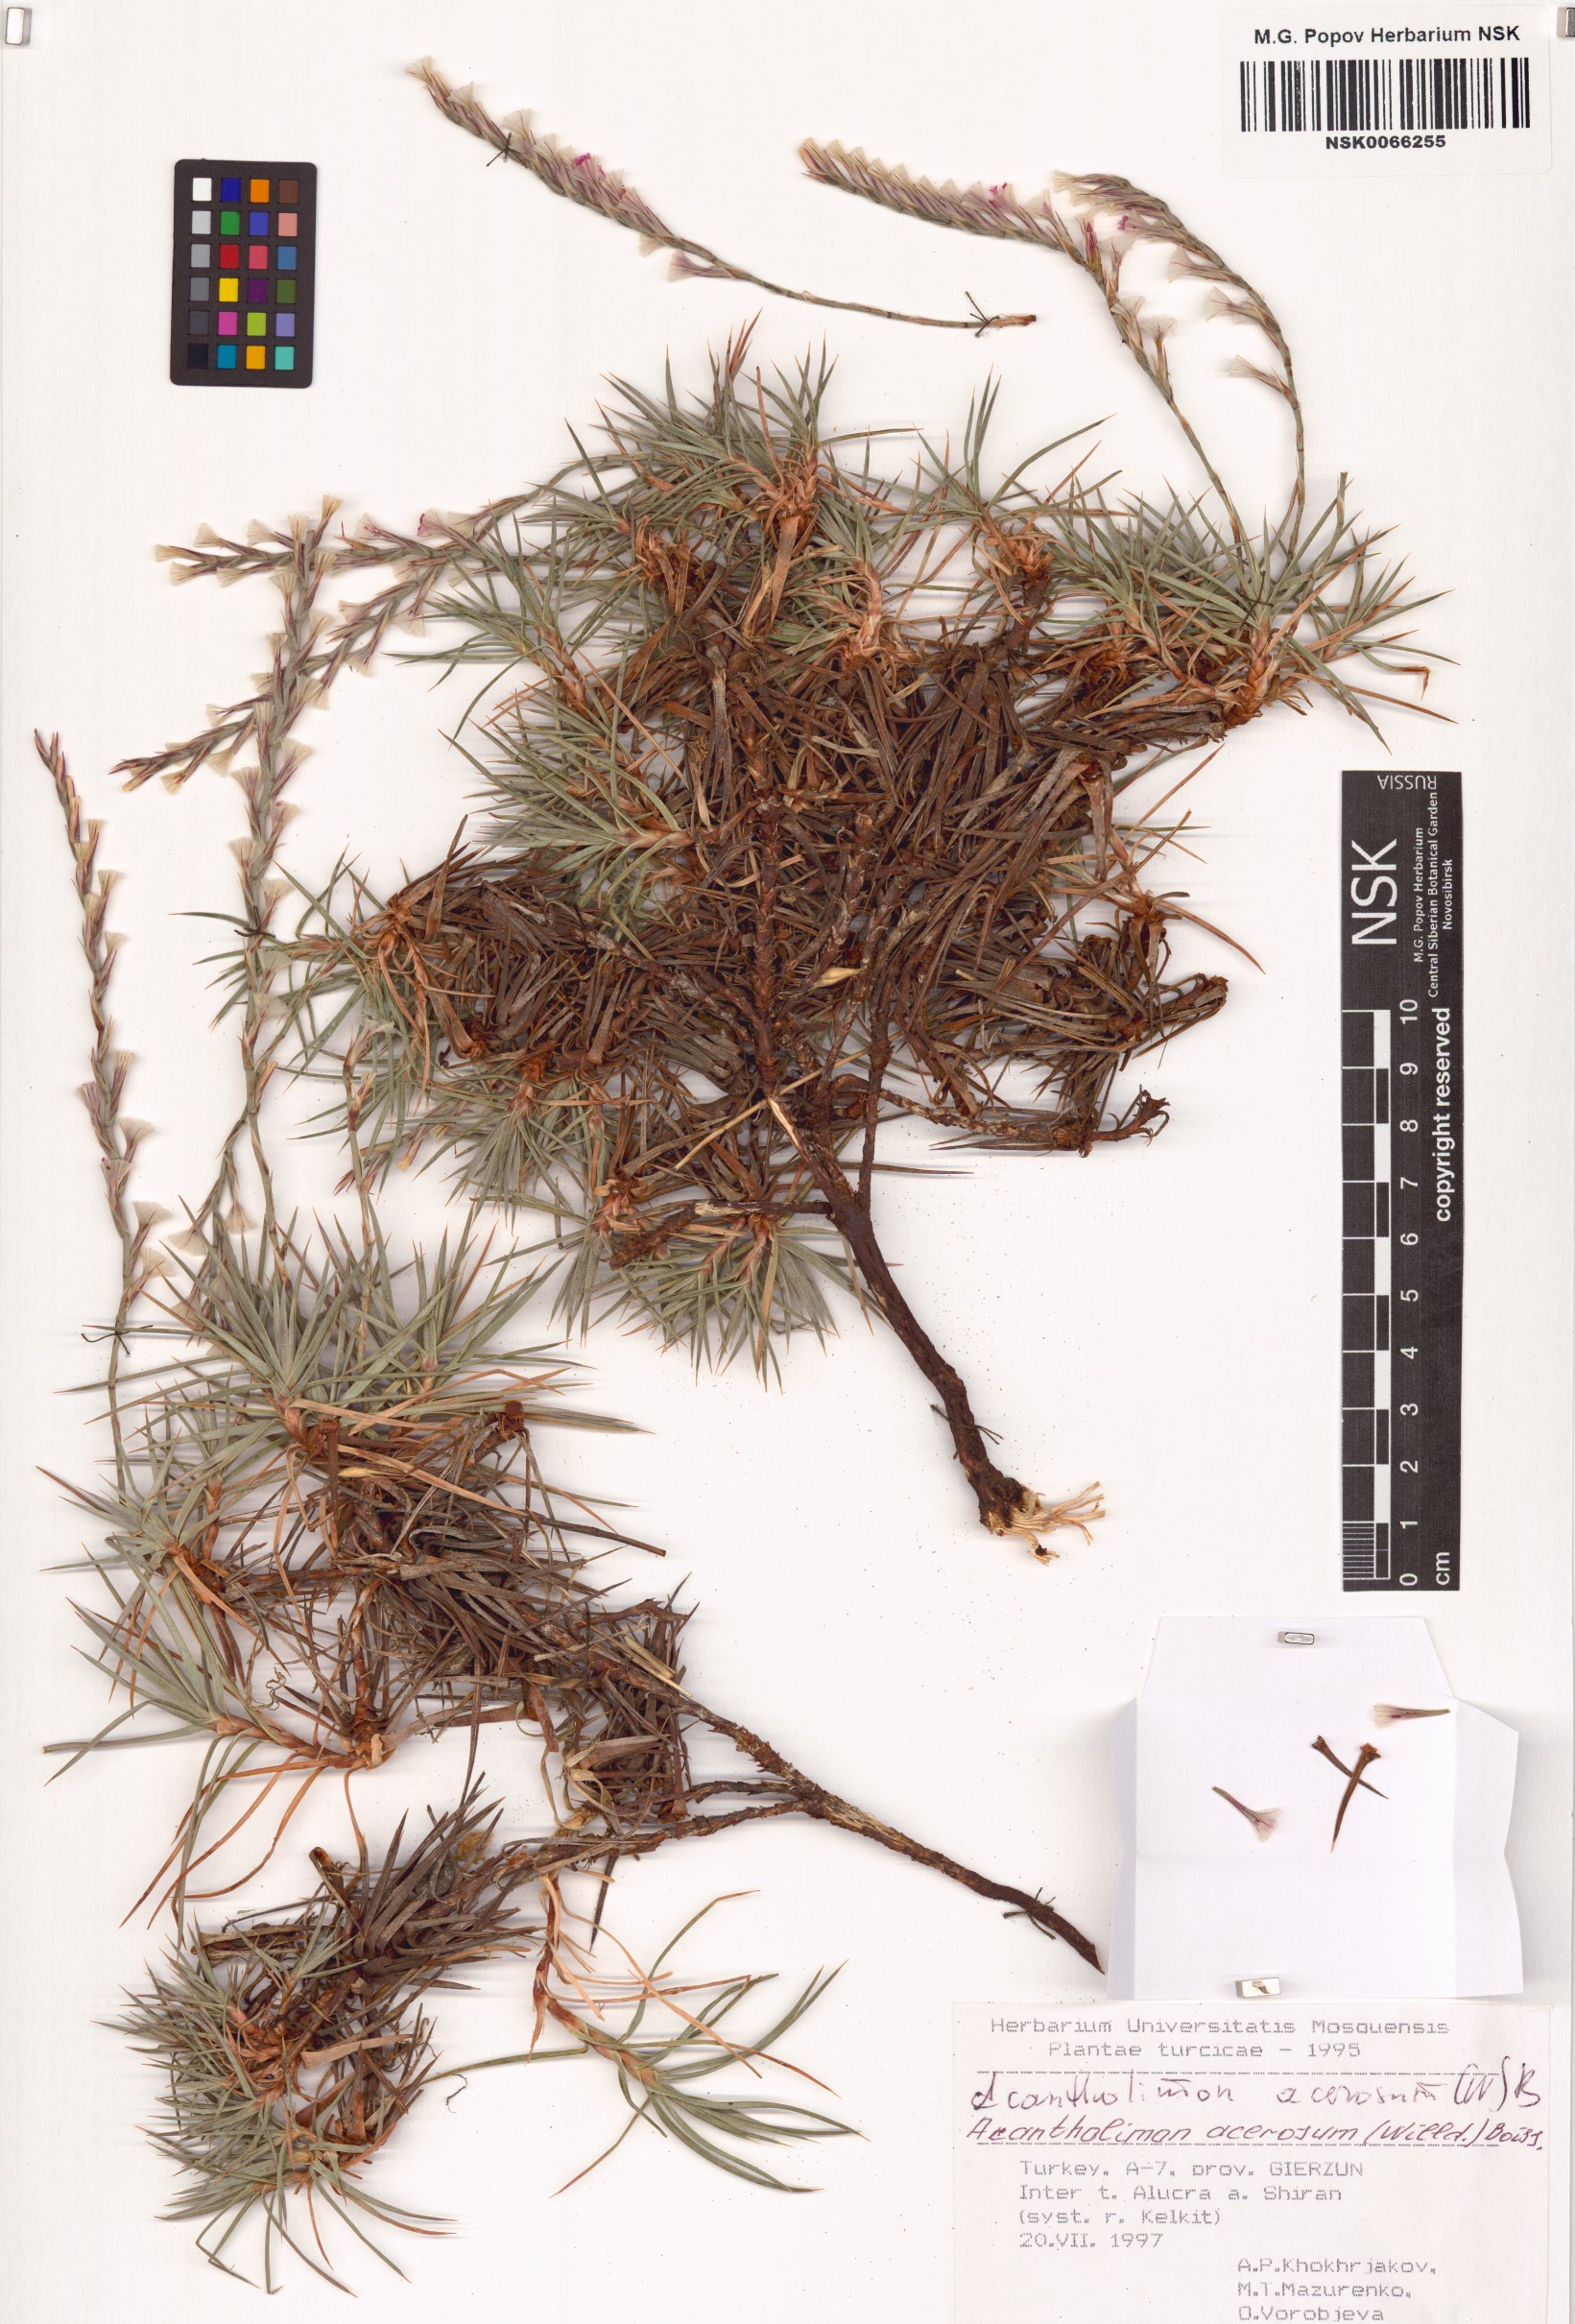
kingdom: Plantae
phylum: Tracheophyta
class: Magnoliopsida
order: Caryophyllales
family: Plumbaginaceae
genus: Acantholimon
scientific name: Acantholimon acerosum
